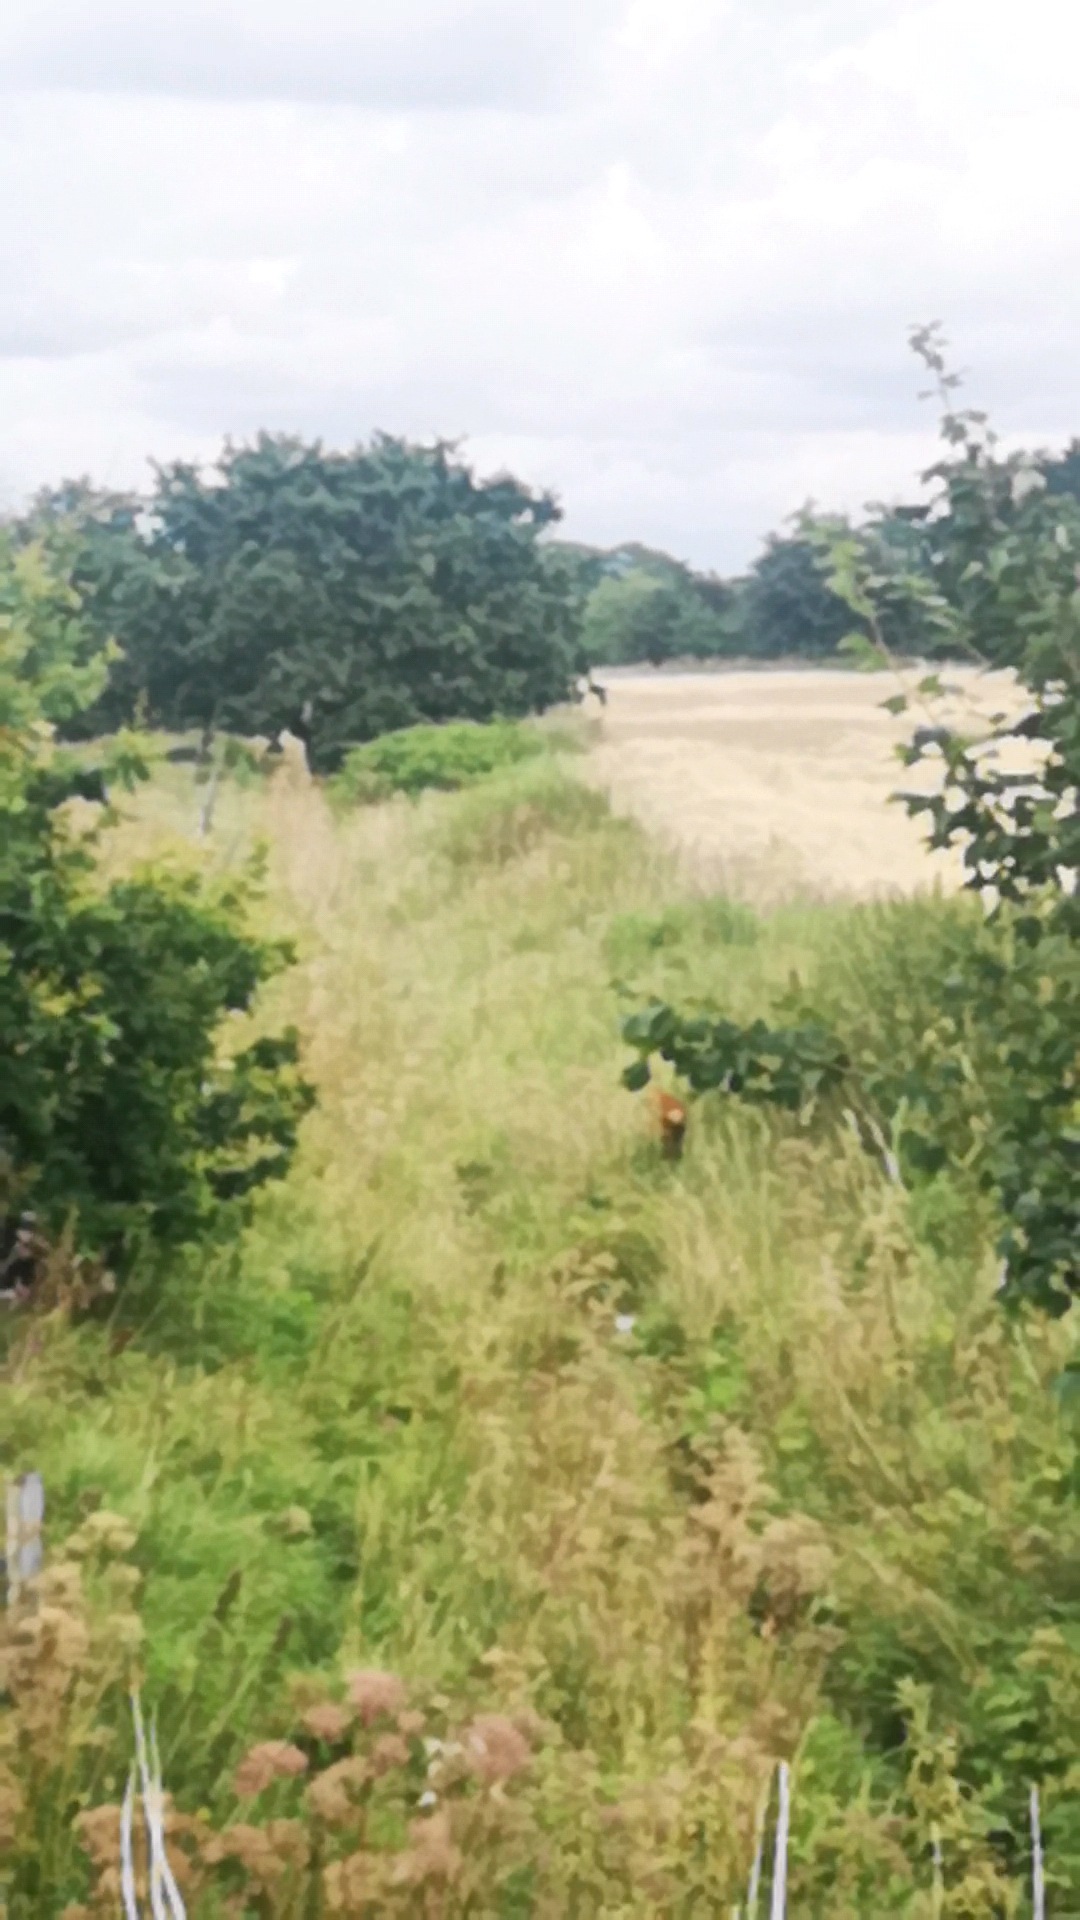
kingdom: Animalia
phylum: Chordata
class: Mammalia
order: Artiodactyla
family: Cervidae
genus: Capreolus
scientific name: Capreolus capreolus
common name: Rådyr
